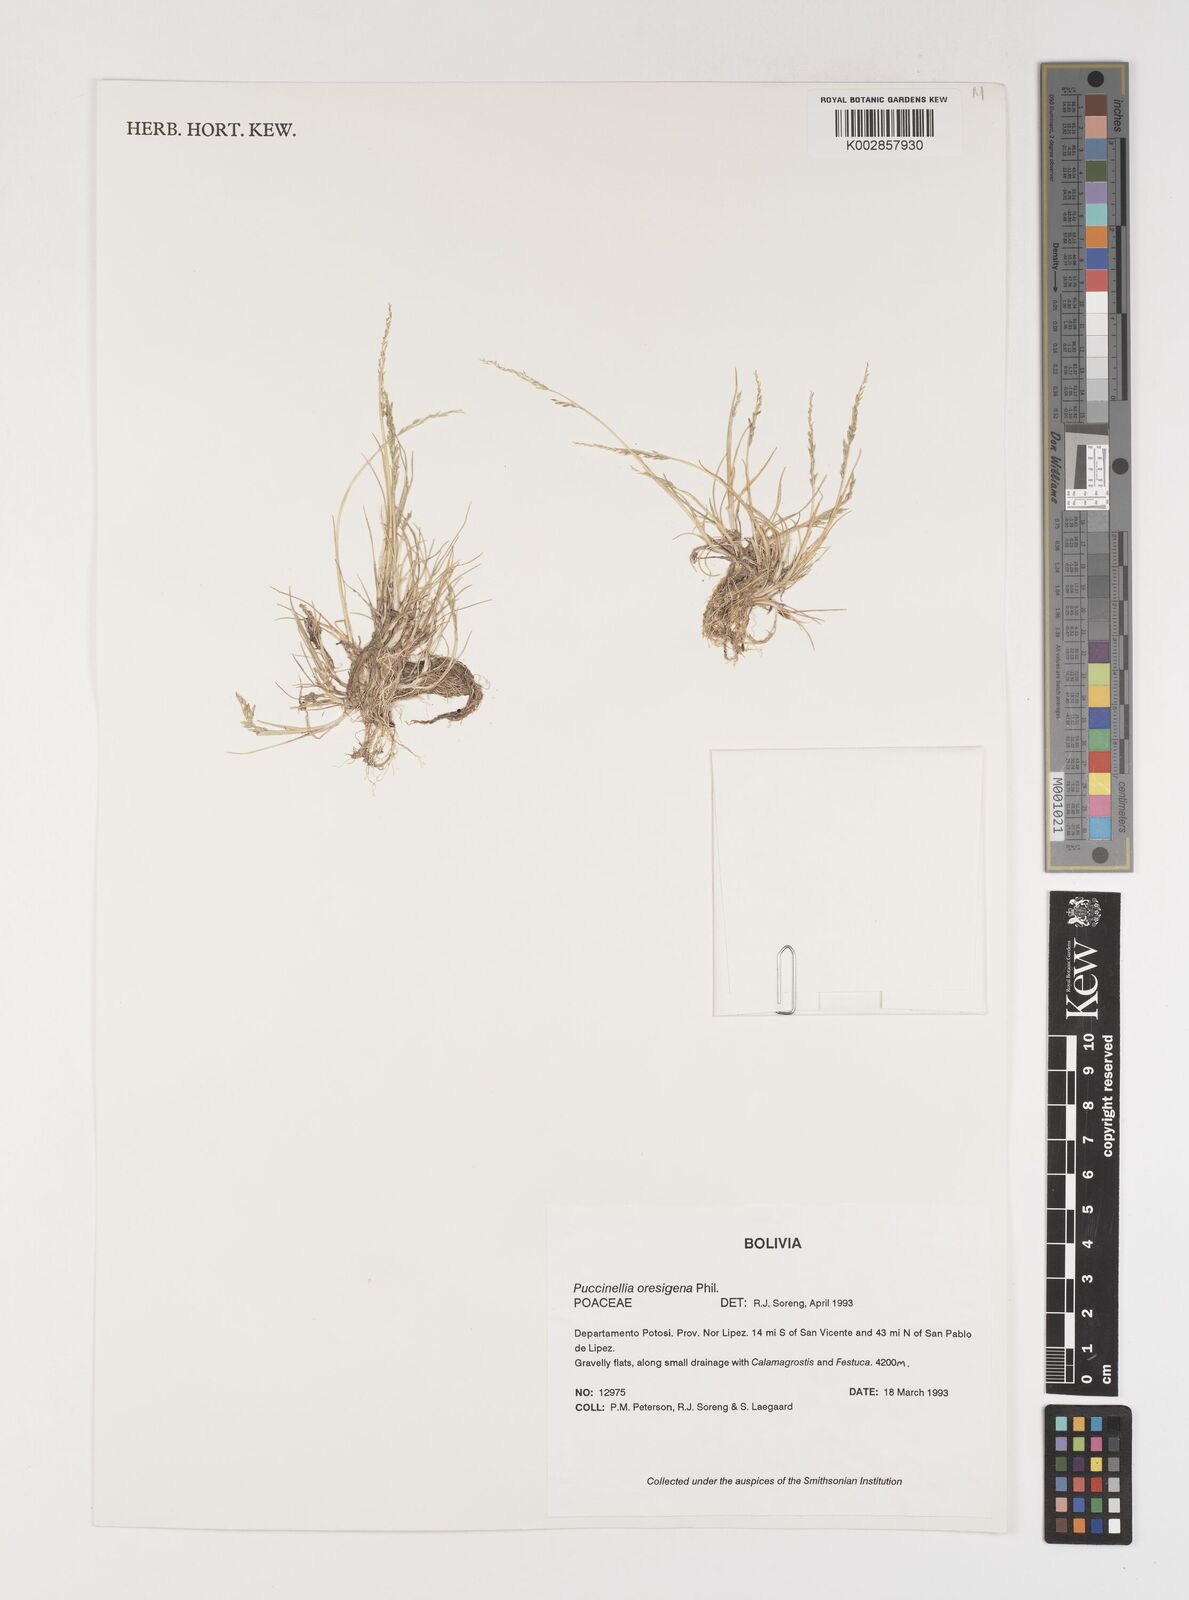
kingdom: Plantae
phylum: Tracheophyta
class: Liliopsida
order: Poales
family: Poaceae
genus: Puccinellia
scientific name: Puccinellia frigida
